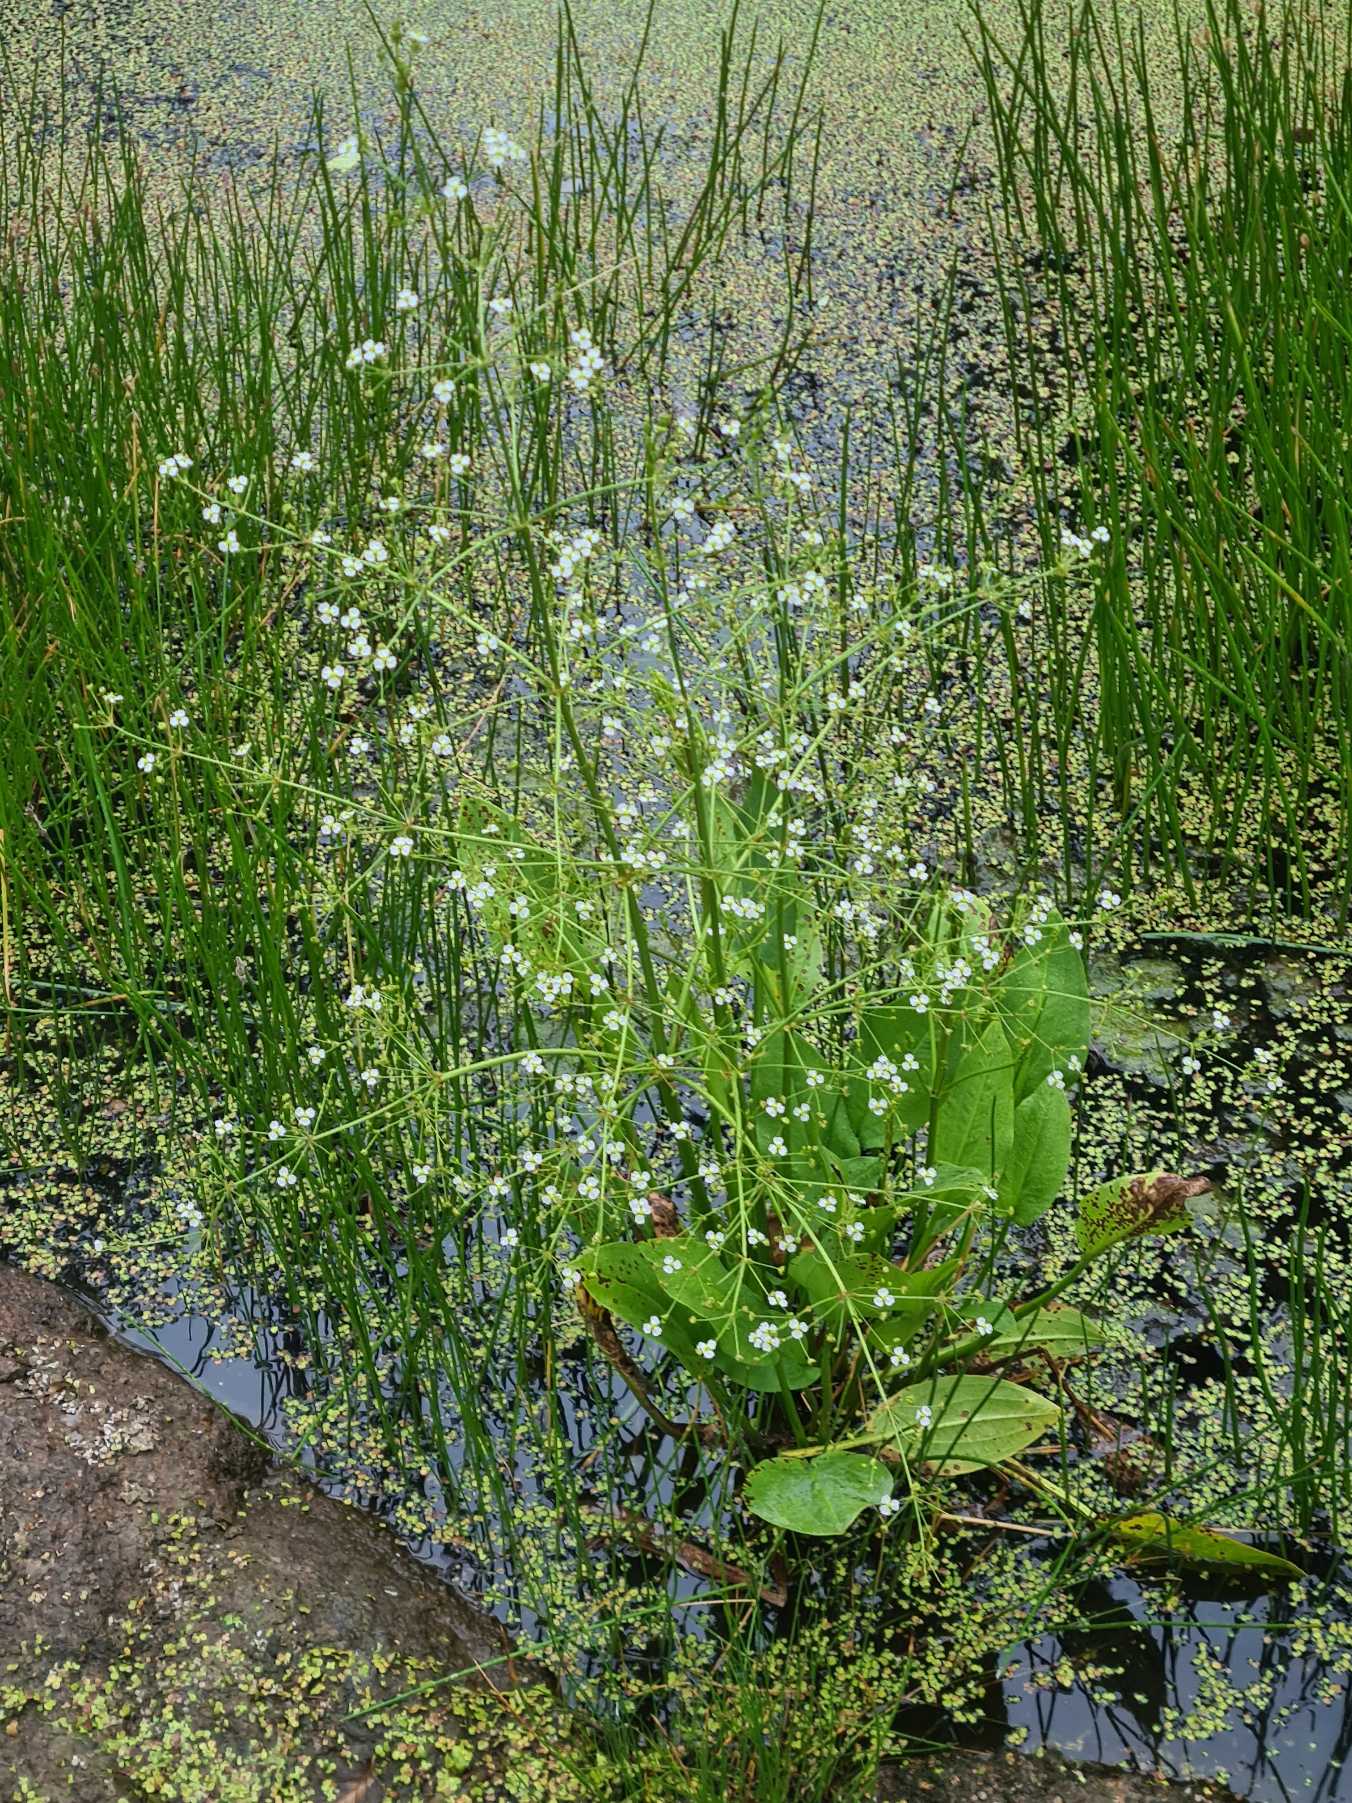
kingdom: Plantae
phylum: Tracheophyta
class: Liliopsida
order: Alismatales
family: Alismataceae
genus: Alisma
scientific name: Alisma plantago-aquatica
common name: Vejbred-skeblad
